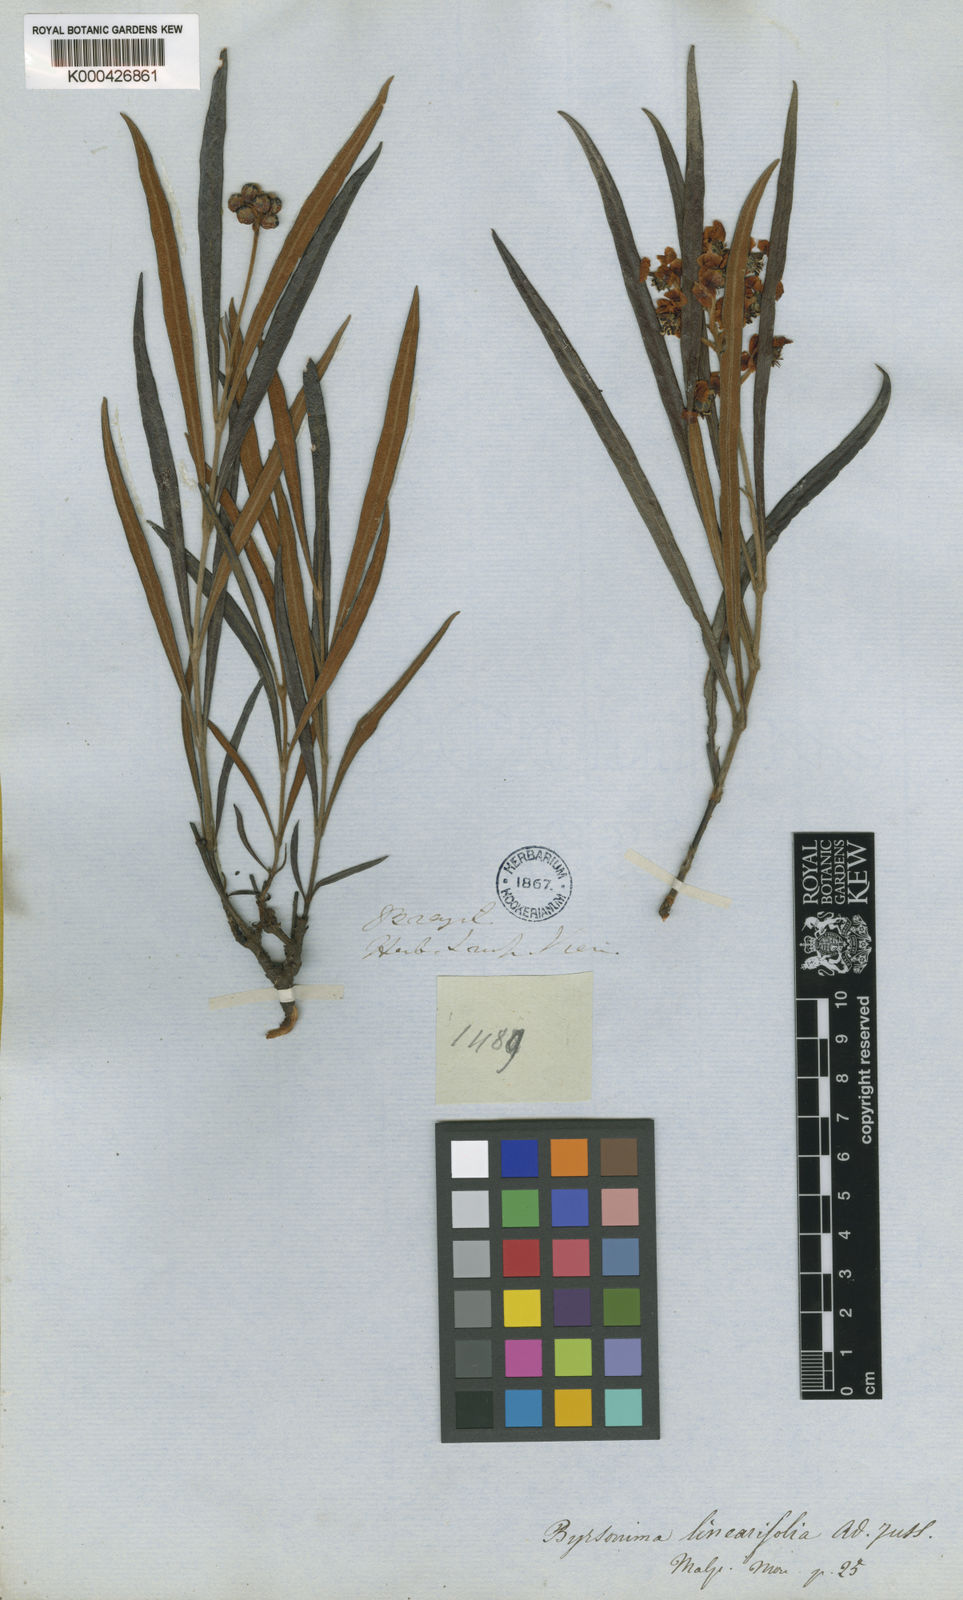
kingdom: Plantae
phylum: Tracheophyta
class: Magnoliopsida
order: Malpighiales
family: Malpighiaceae
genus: Byrsonima
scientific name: Byrsonima linearifolia
